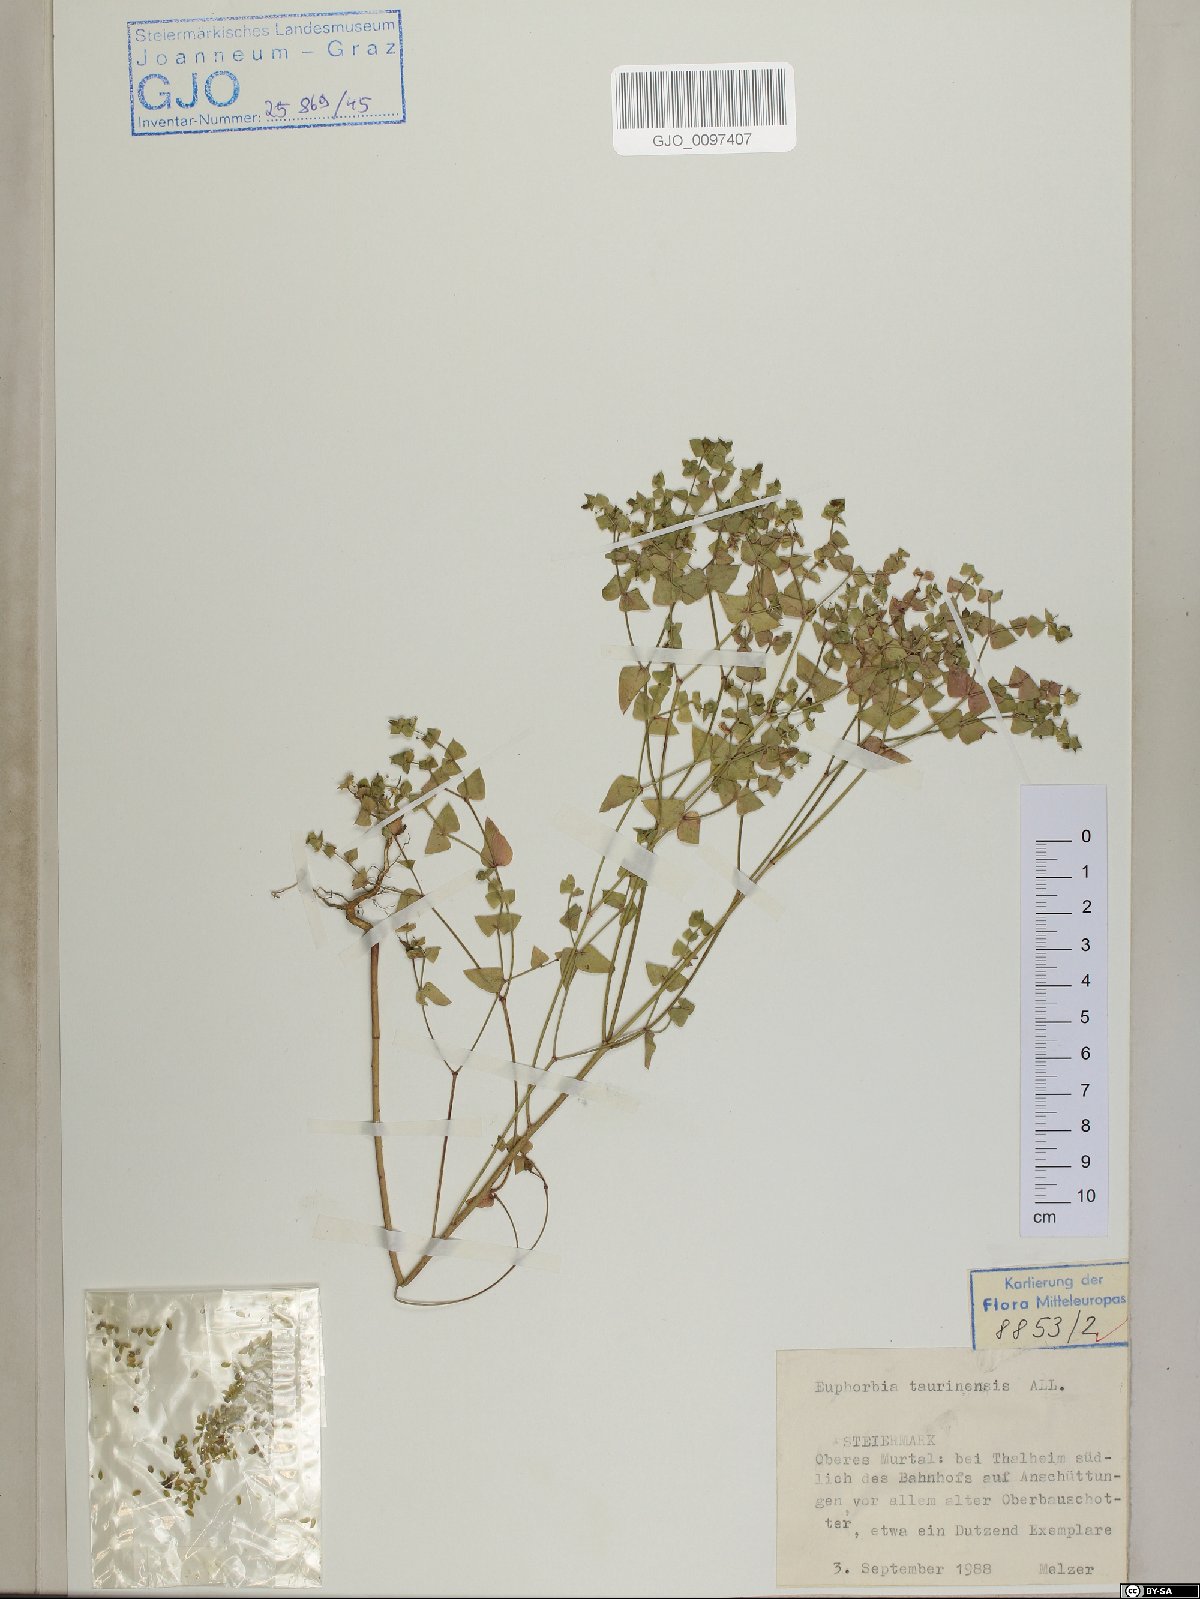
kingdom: Plantae
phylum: Tracheophyta
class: Magnoliopsida
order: Malpighiales
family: Euphorbiaceae
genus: Euphorbia
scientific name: Euphorbia taurinensis
